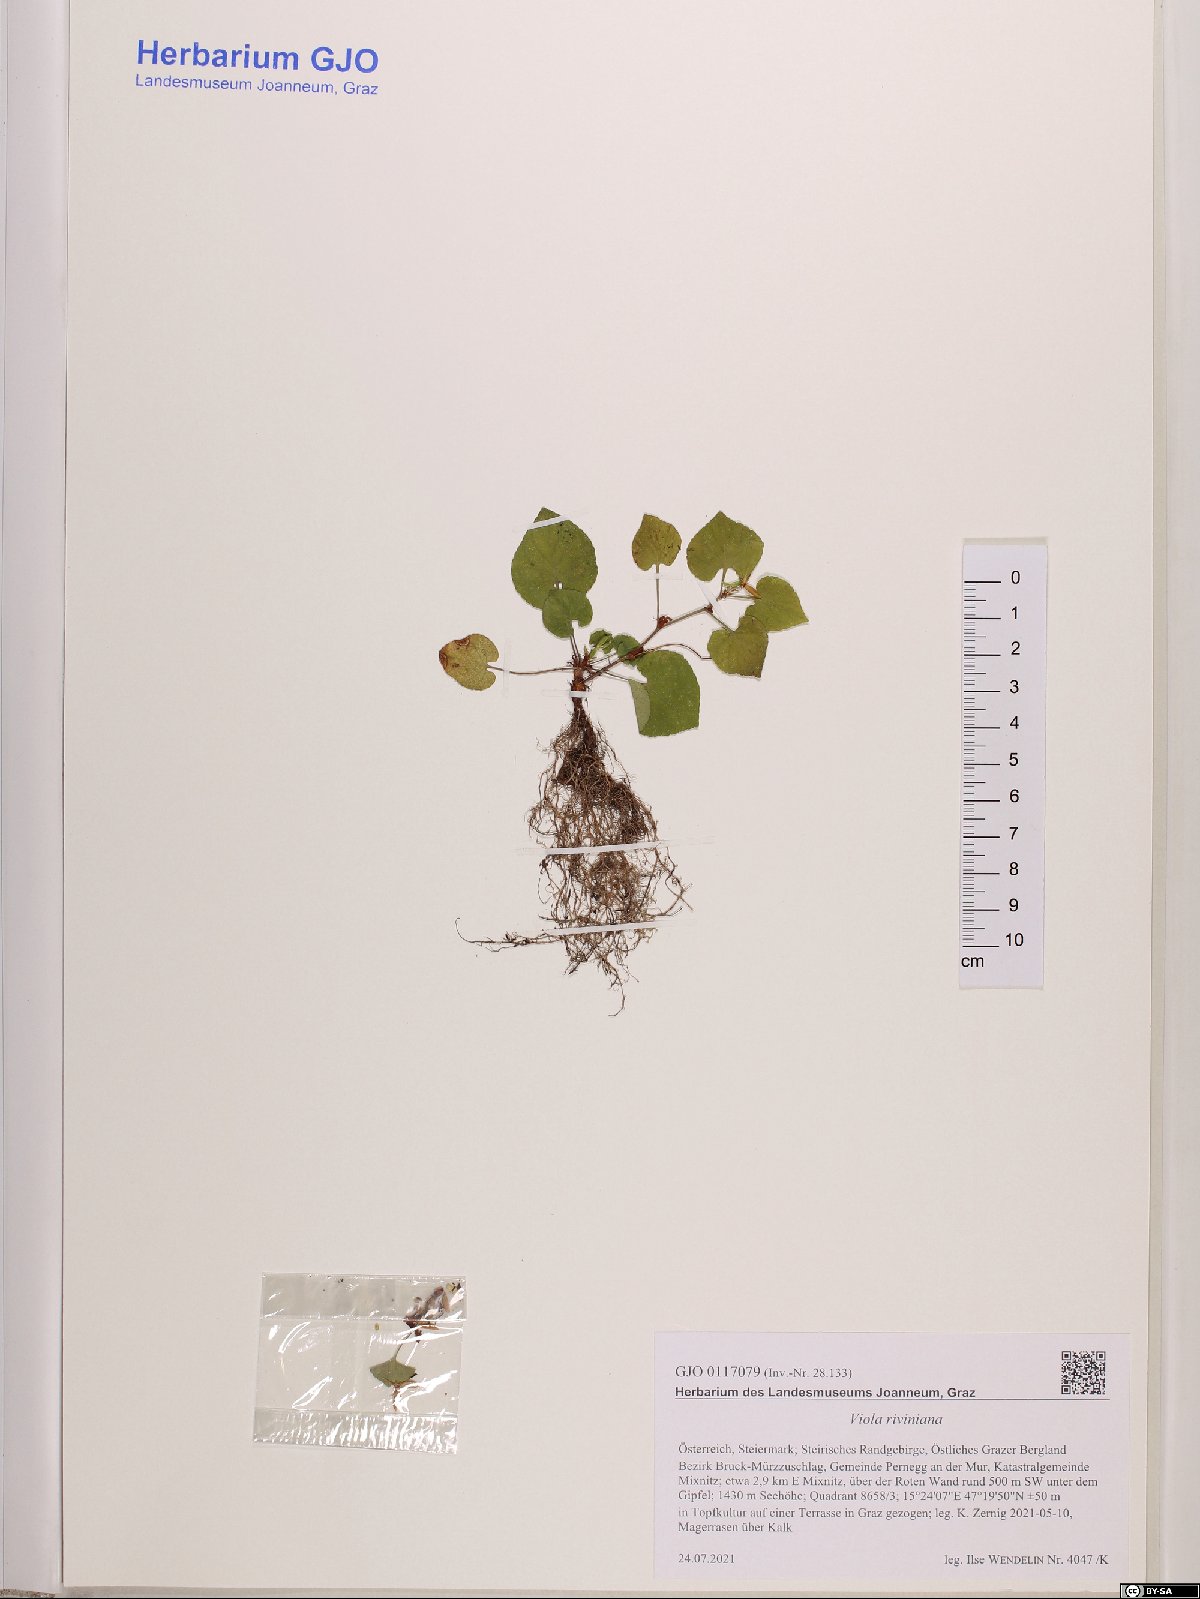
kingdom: Plantae
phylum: Tracheophyta
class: Magnoliopsida
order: Malpighiales
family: Violaceae
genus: Viola
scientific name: Viola riviniana
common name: Common dog-violet
